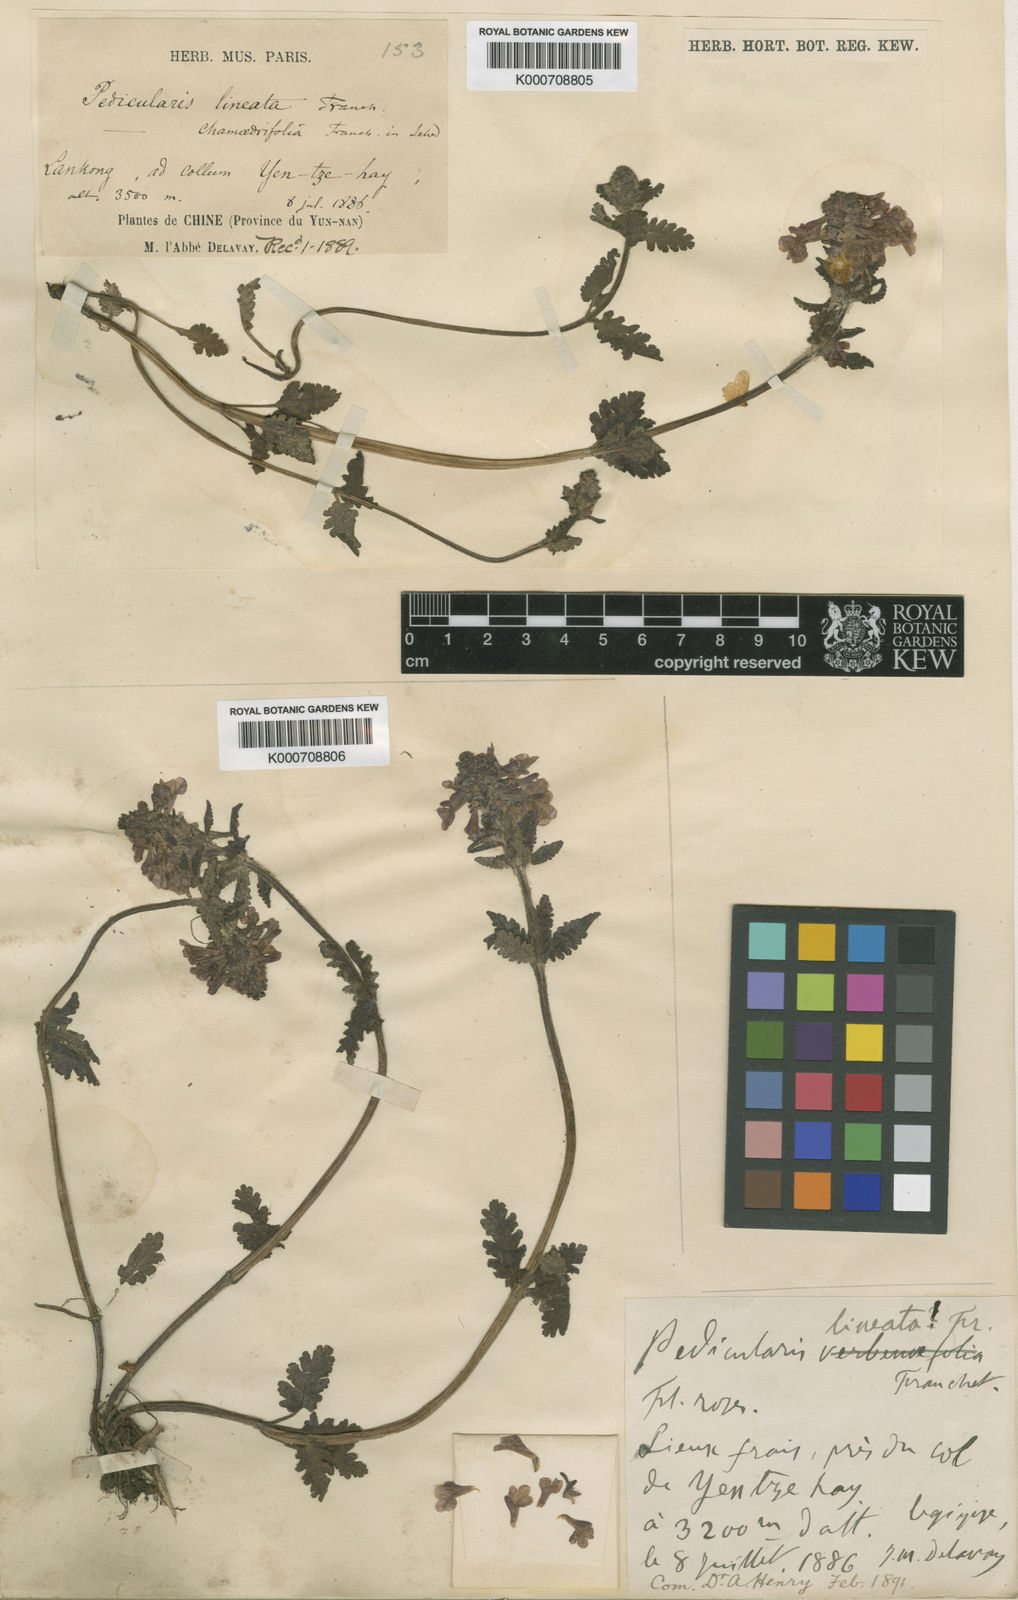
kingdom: Plantae
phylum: Tracheophyta
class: Magnoliopsida
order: Lamiales
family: Orobanchaceae
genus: Pedicularis
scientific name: Pedicularis lineata
